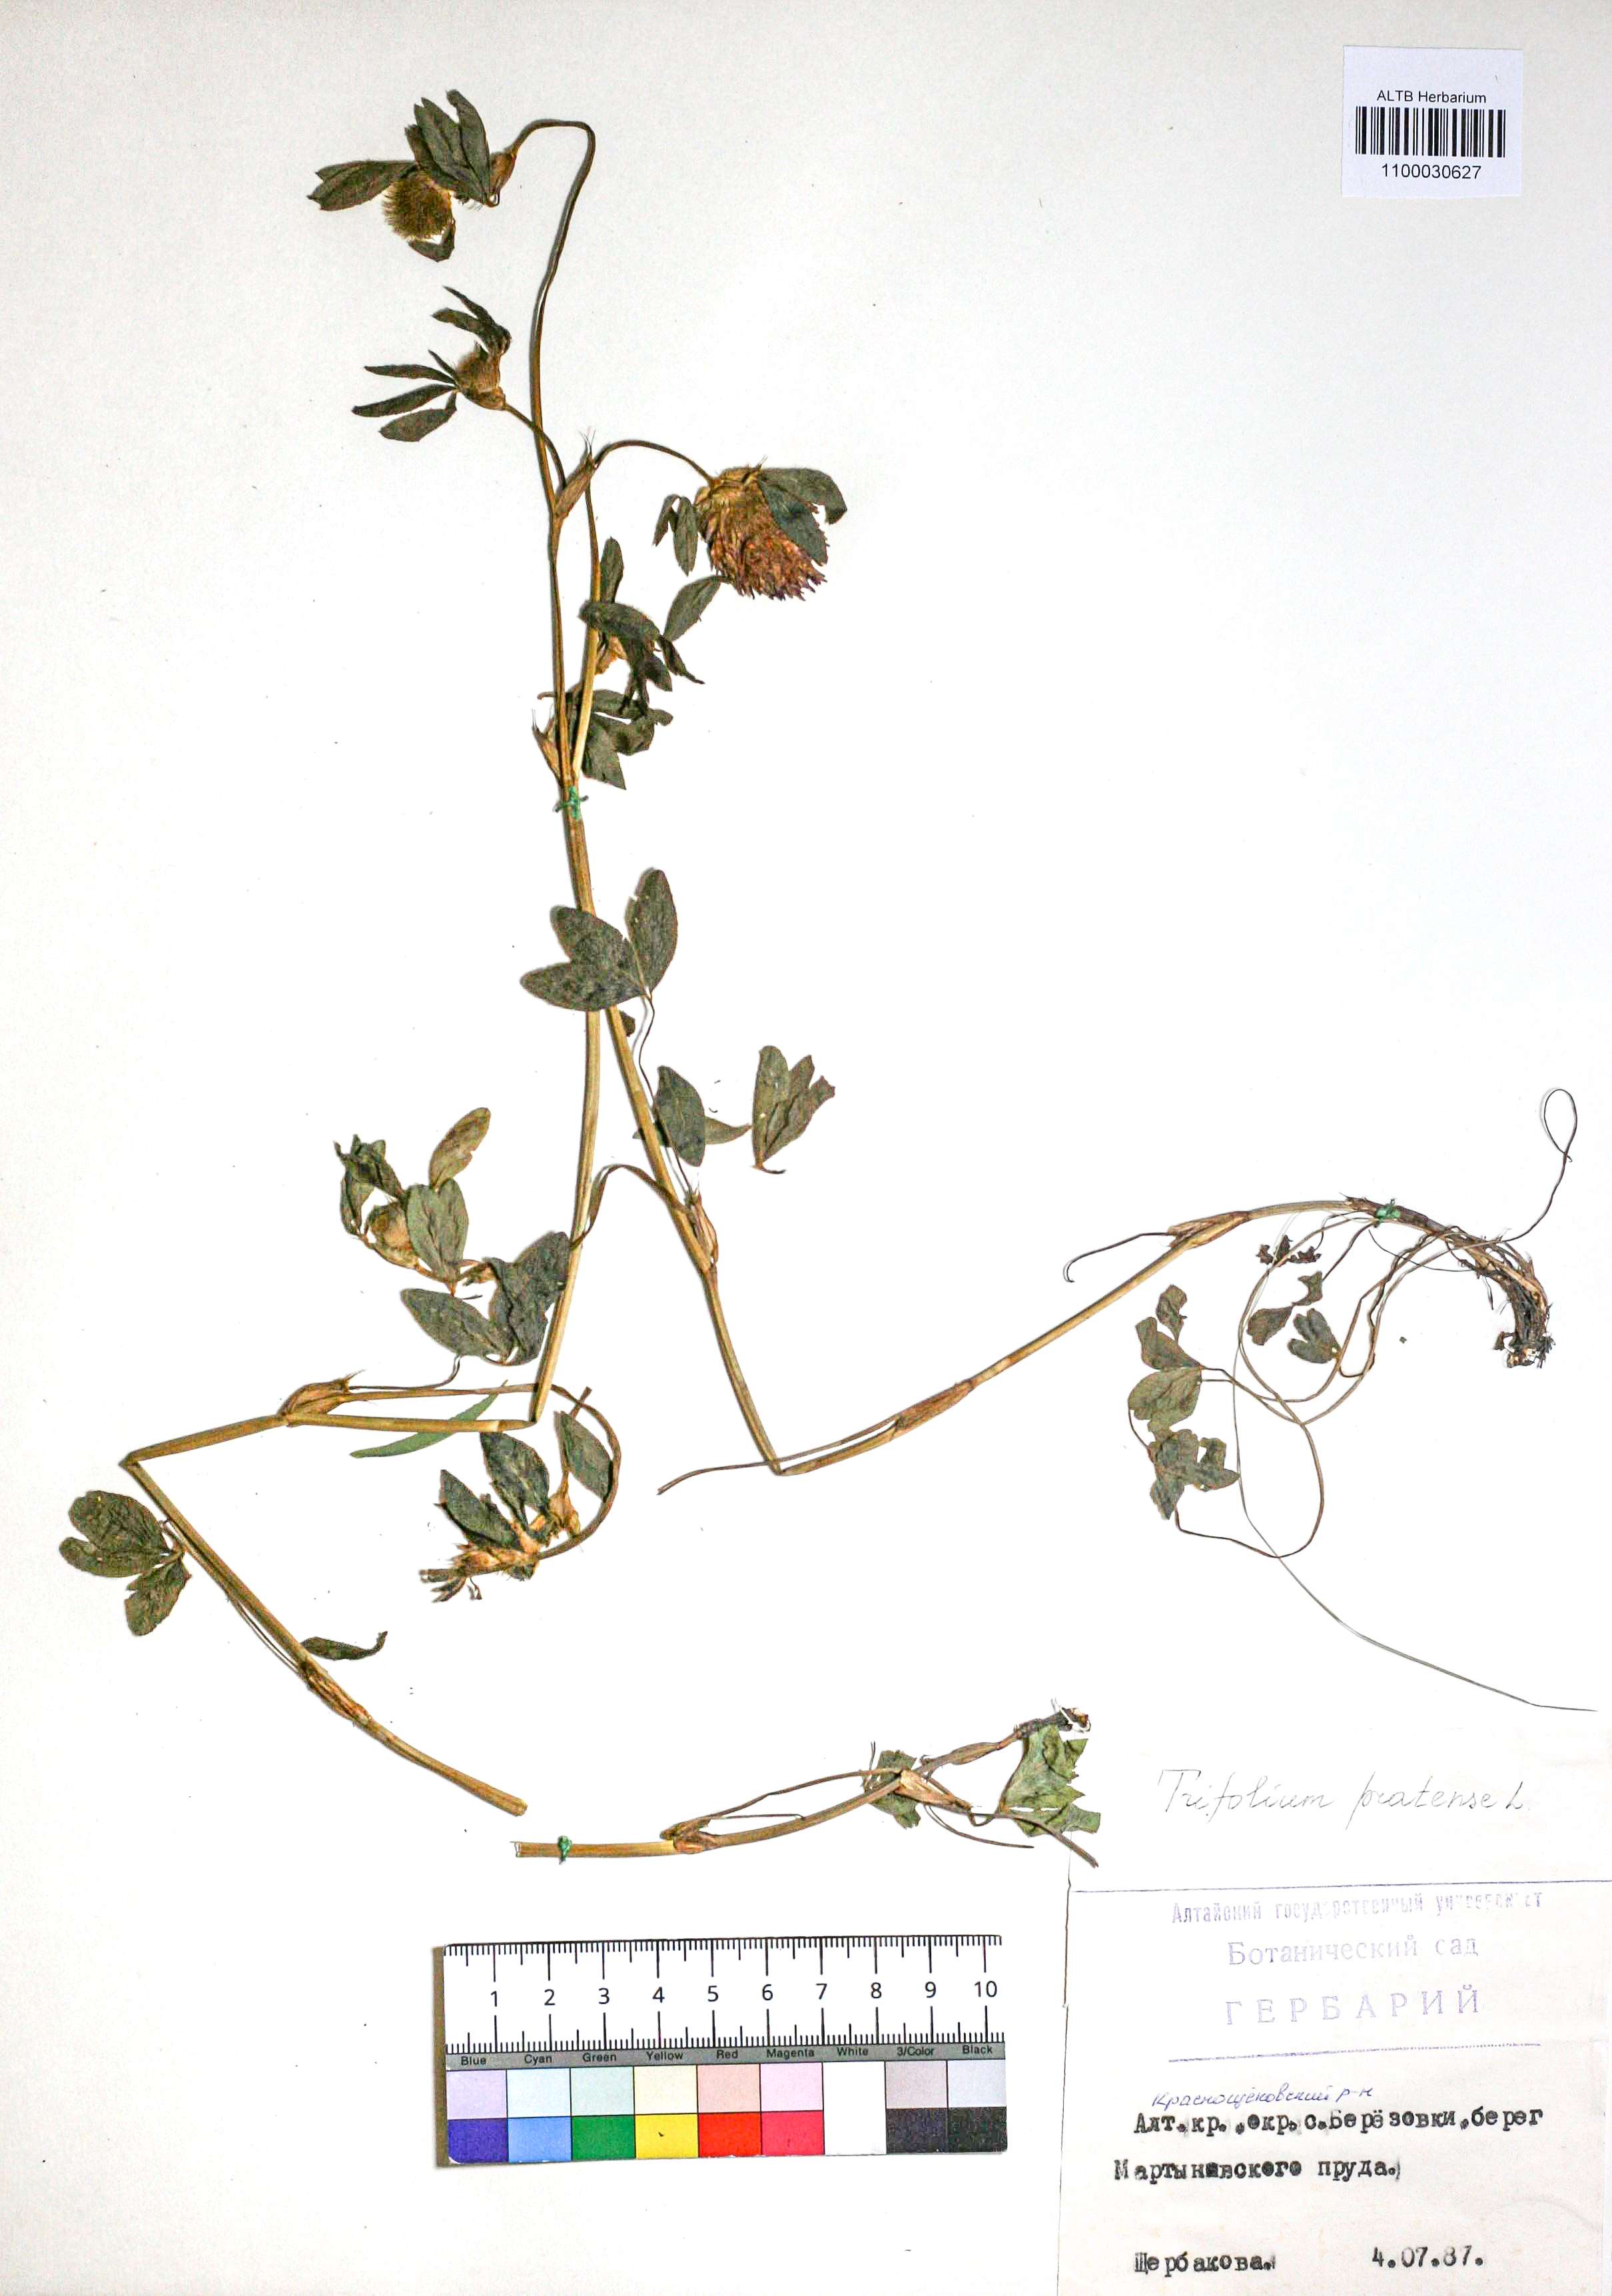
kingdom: Plantae
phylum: Tracheophyta
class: Magnoliopsida
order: Fabales
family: Fabaceae
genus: Trifolium
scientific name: Trifolium pratense
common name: Red clover
